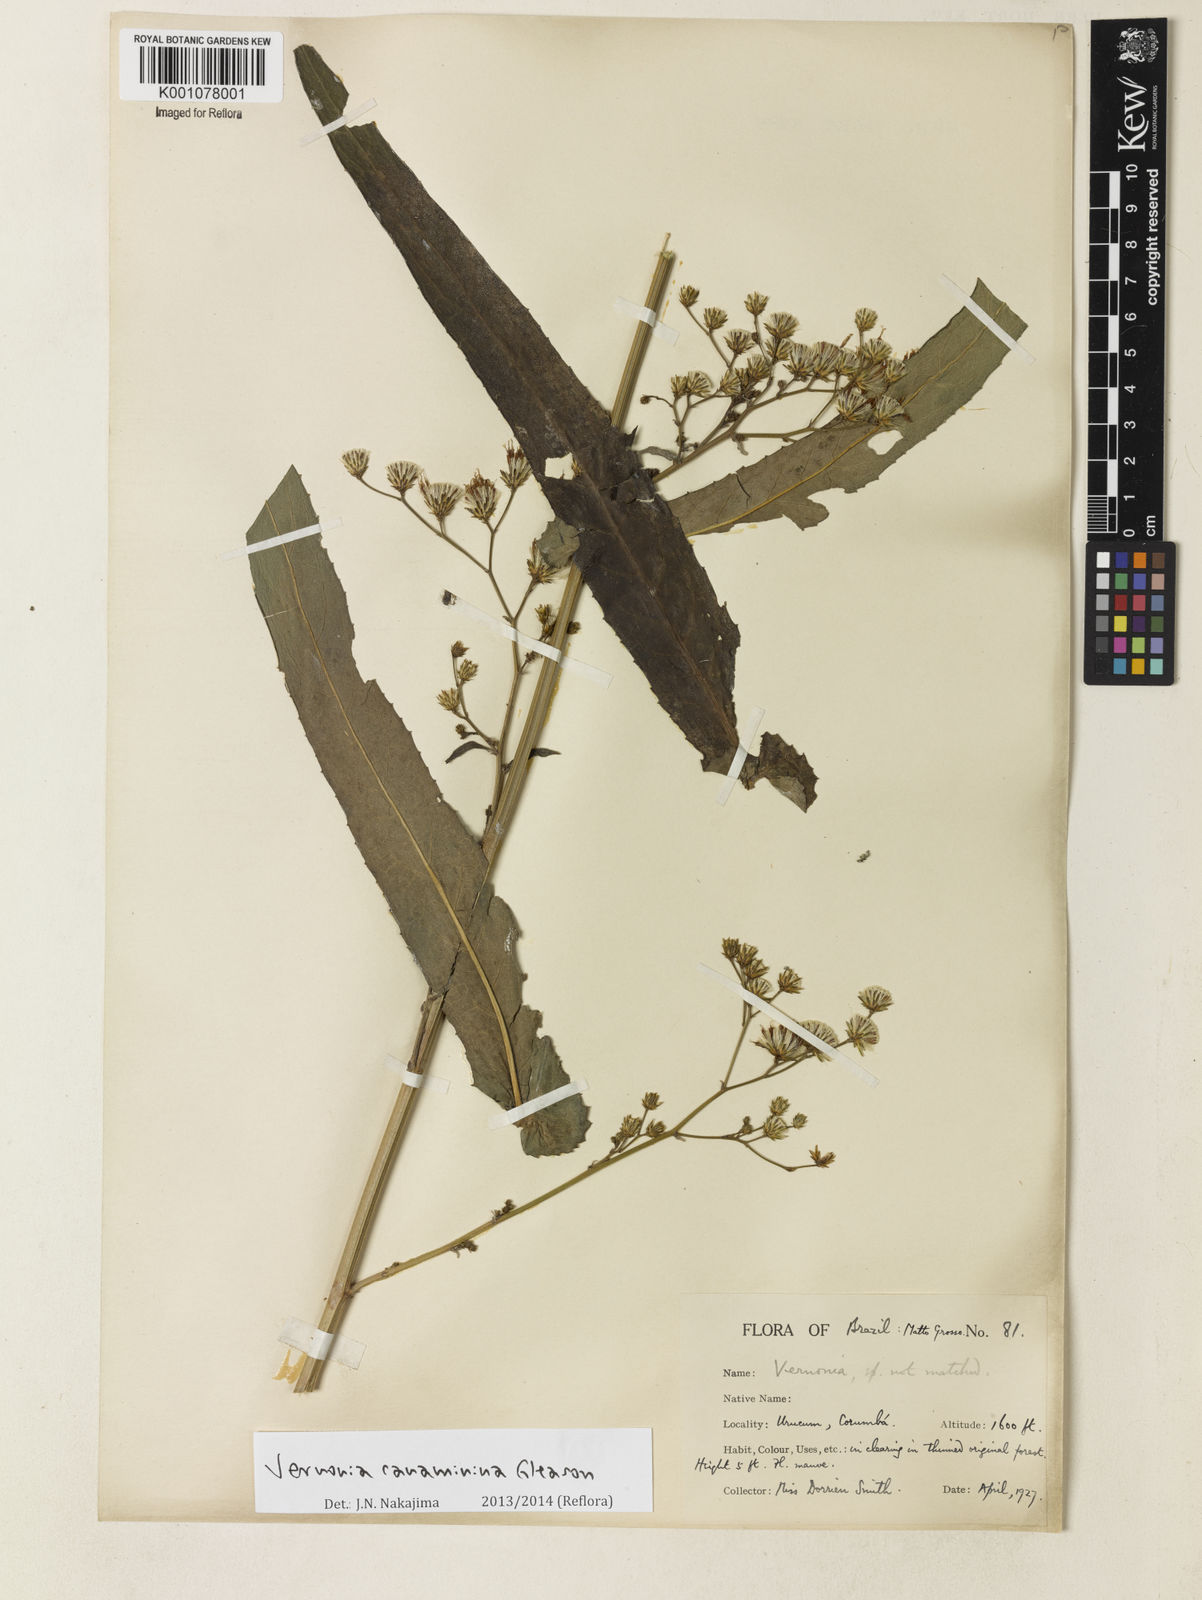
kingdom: Plantae
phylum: Tracheophyta
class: Magnoliopsida
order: Asterales
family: Asteraceae
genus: Vernonanthura
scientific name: Vernonanthura amplexicaulis
